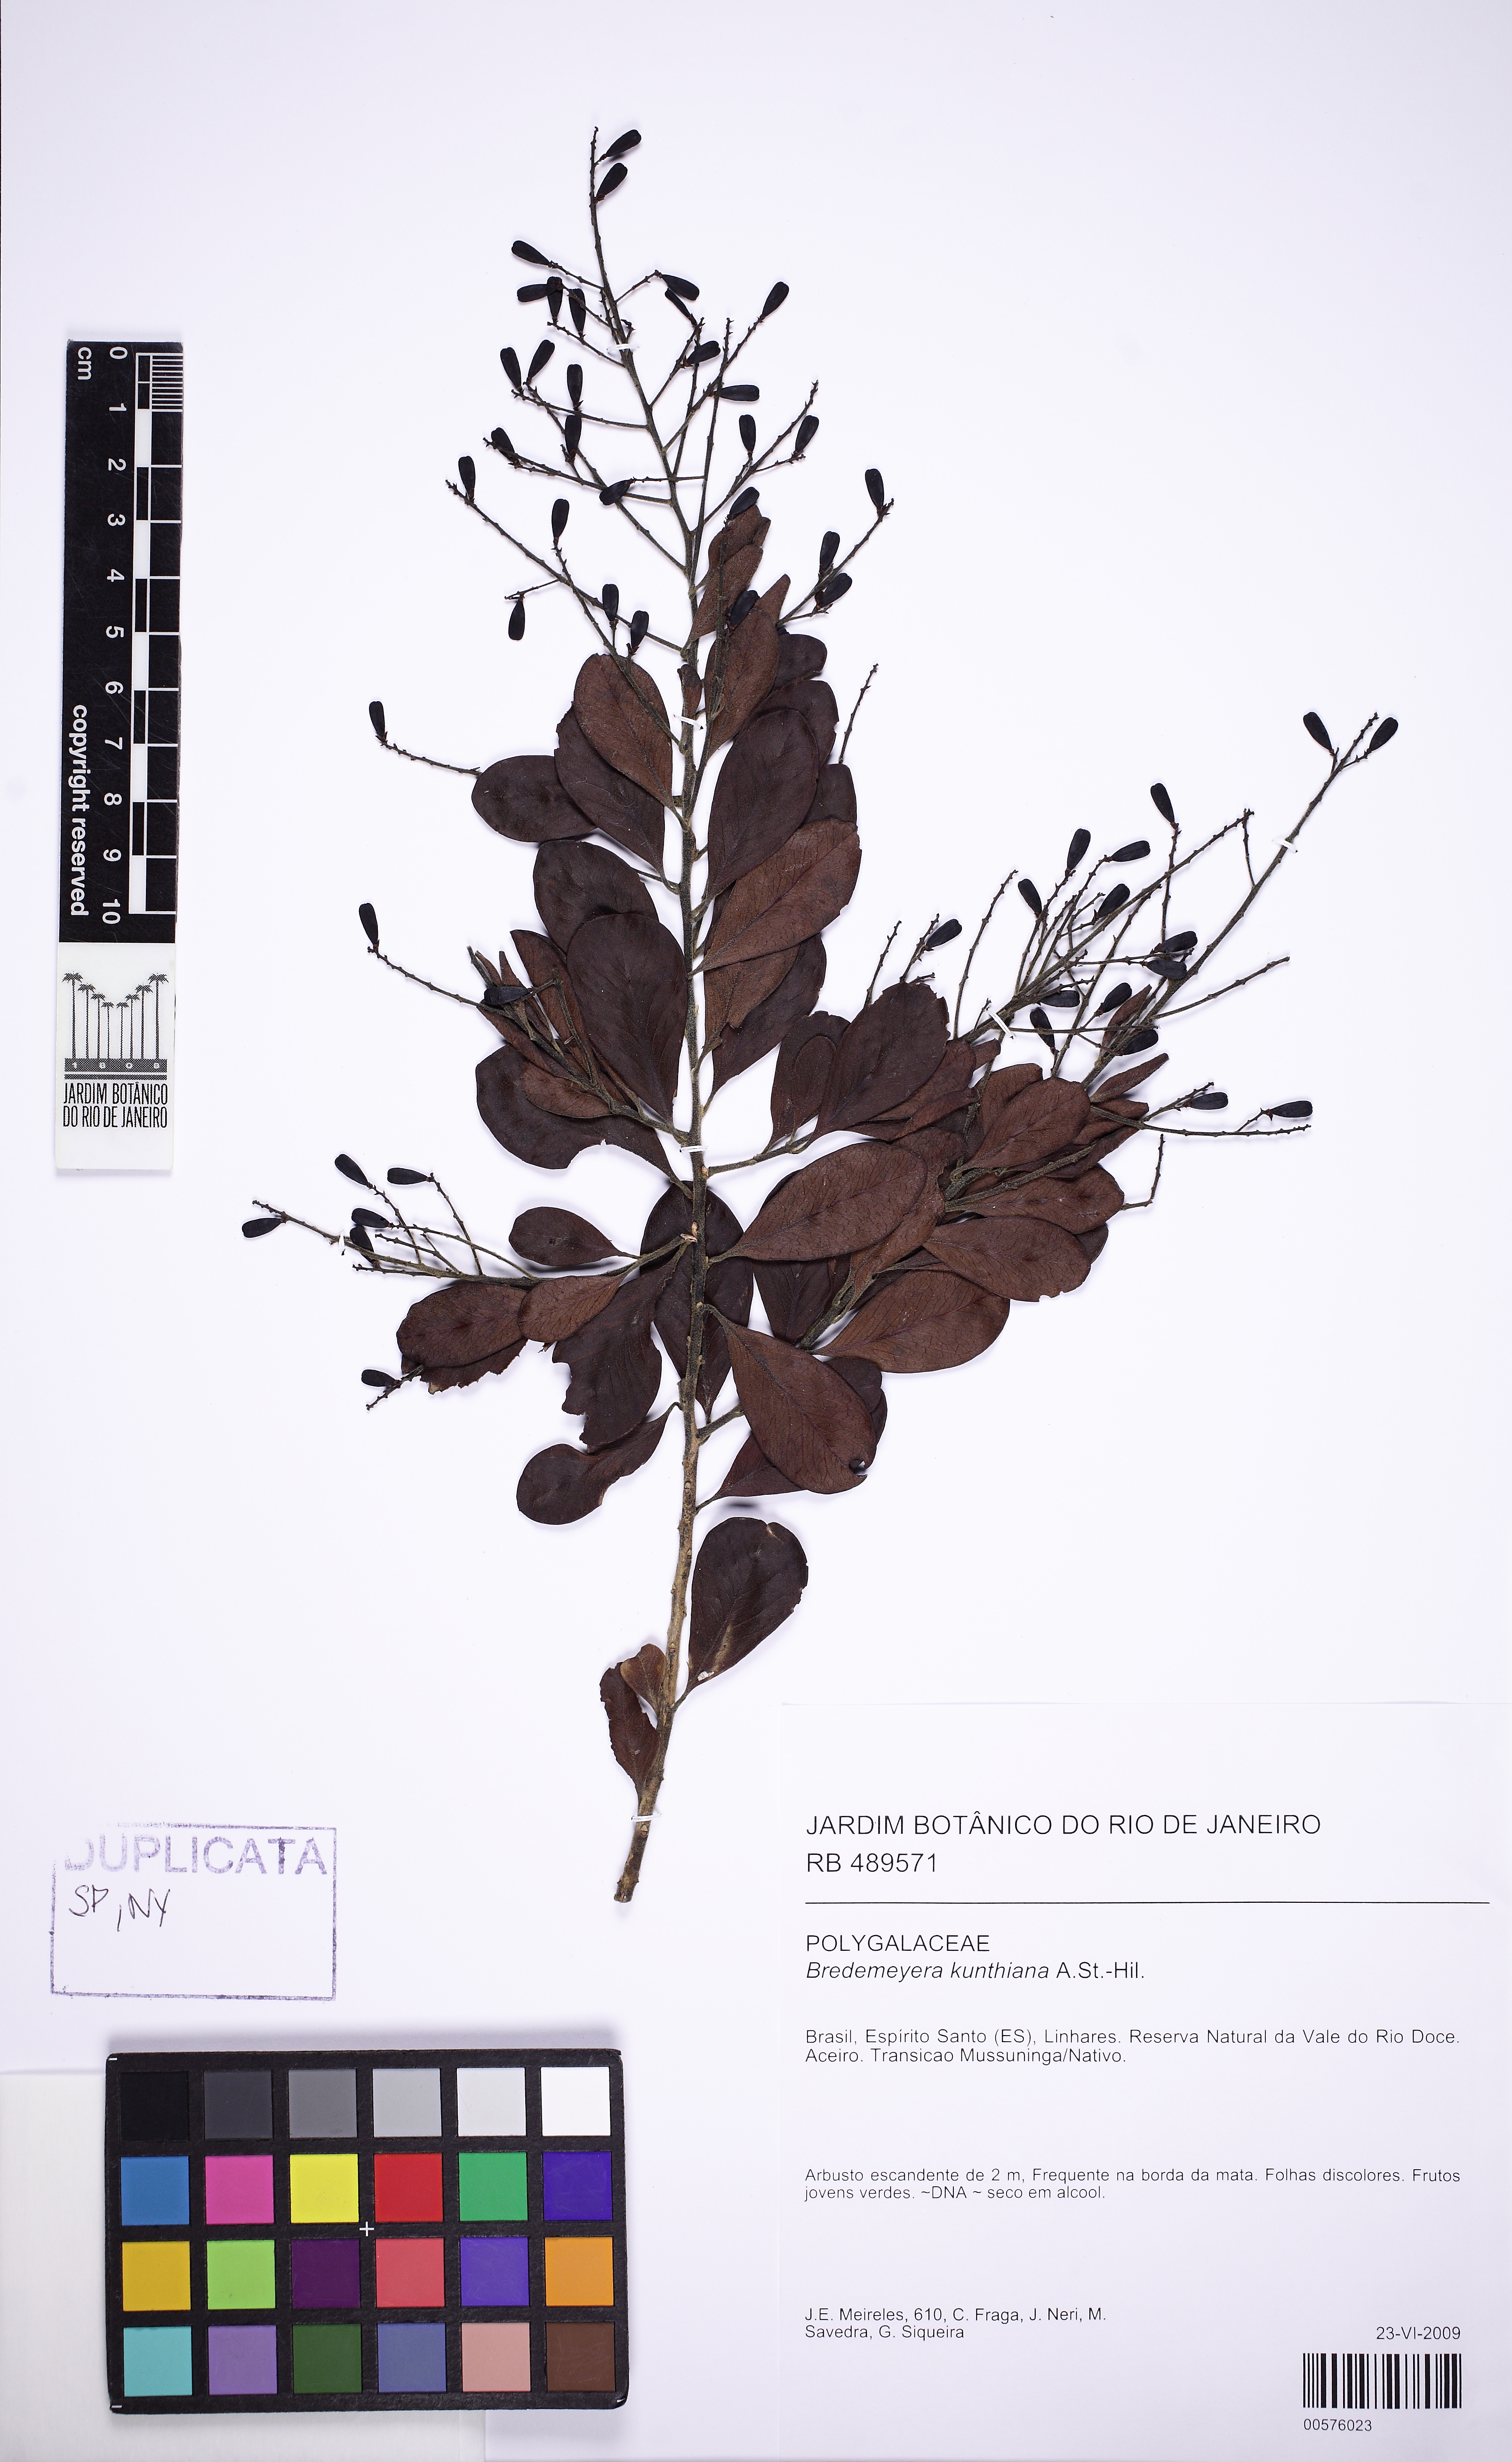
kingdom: Plantae
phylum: Tracheophyta
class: Magnoliopsida
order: Fabales
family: Polygalaceae
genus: Bredemeyera
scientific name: Bredemeyera hebeclada
